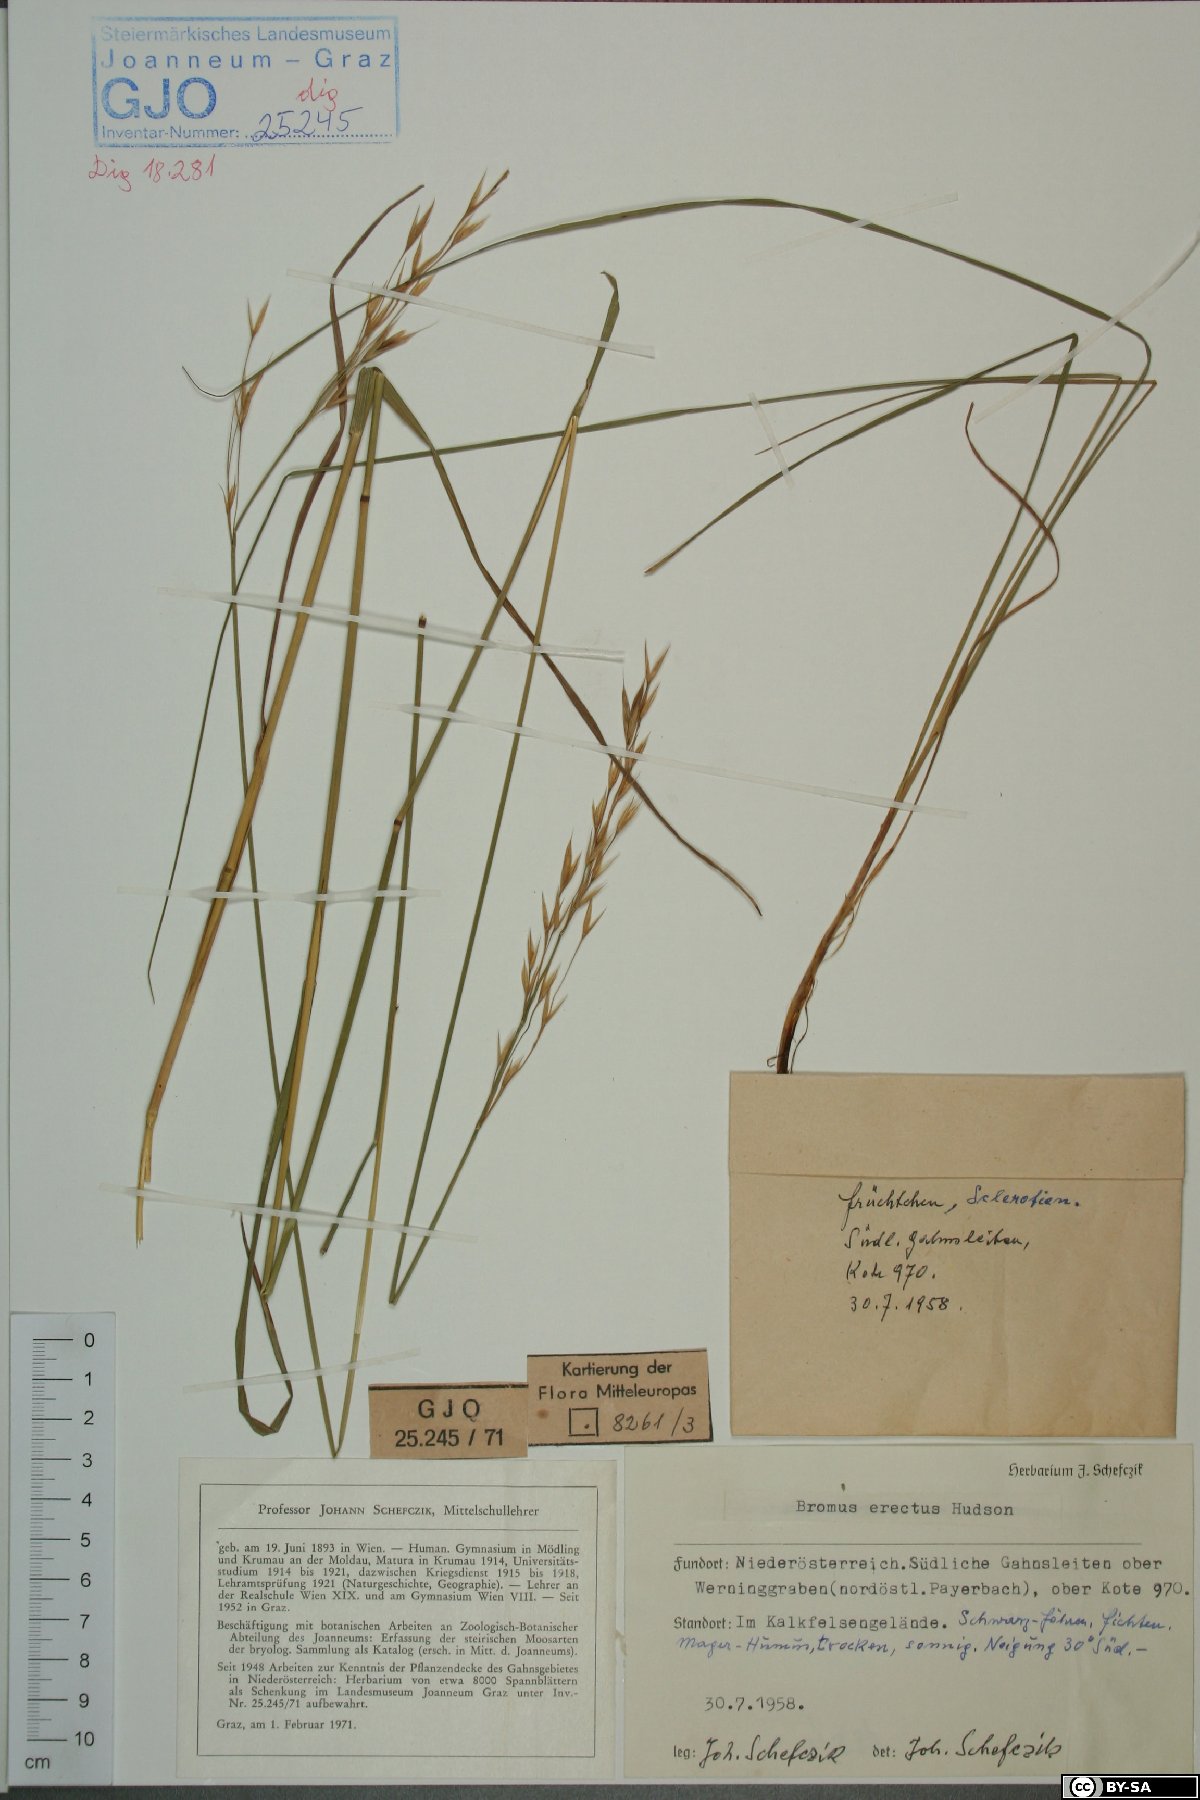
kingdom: Plantae
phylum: Tracheophyta
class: Liliopsida
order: Poales
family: Poaceae
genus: Bromus
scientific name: Bromus erectus
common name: Erect brome
